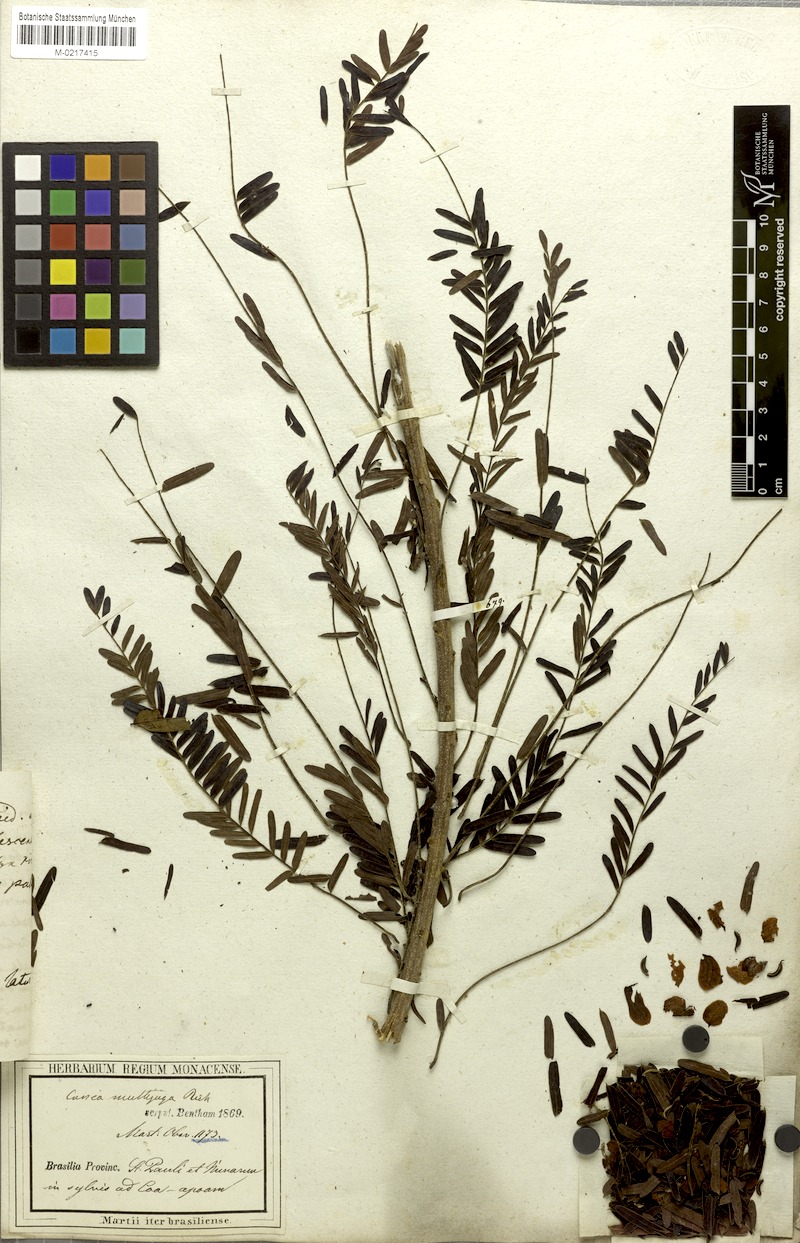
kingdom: Plantae
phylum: Tracheophyta
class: Magnoliopsida
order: Fabales
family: Fabaceae
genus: Senna
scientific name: Senna multijuga
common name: False sicklepod
